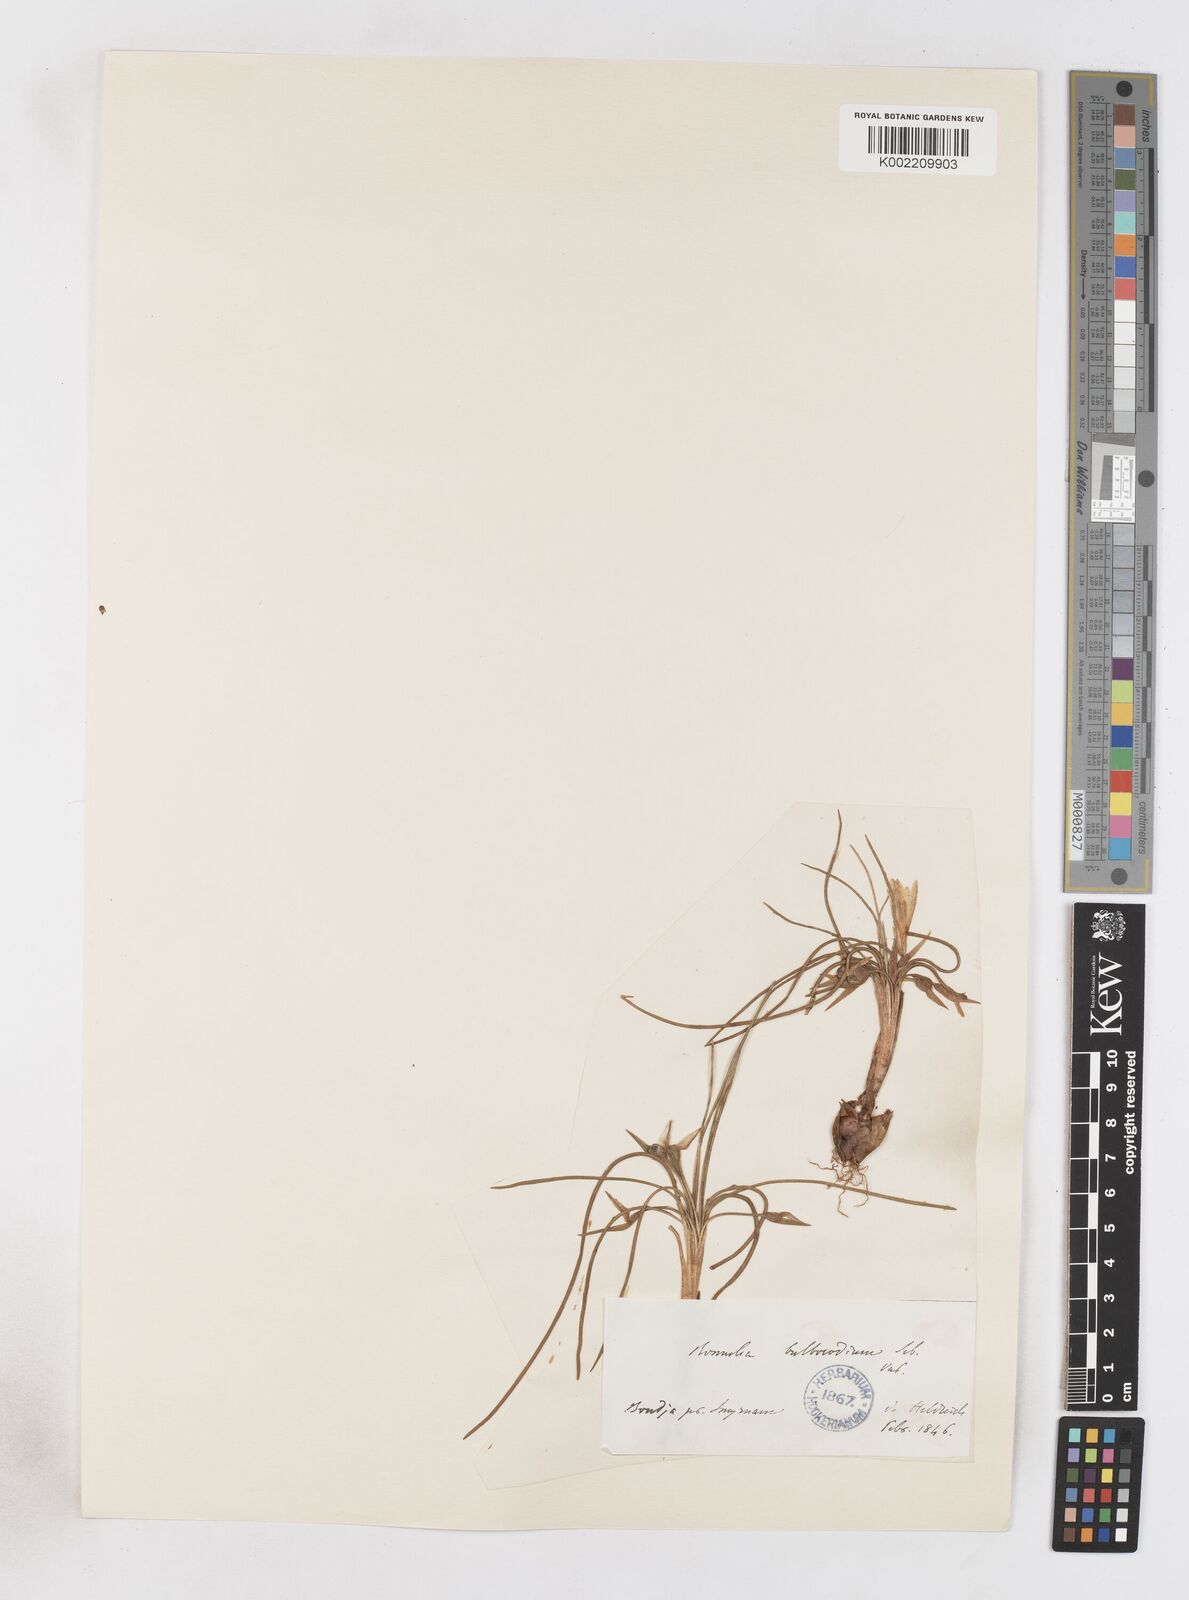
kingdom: Plantae
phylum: Tracheophyta
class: Liliopsida
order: Asparagales
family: Iridaceae
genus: Romulea
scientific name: Romulea bulbocodium
